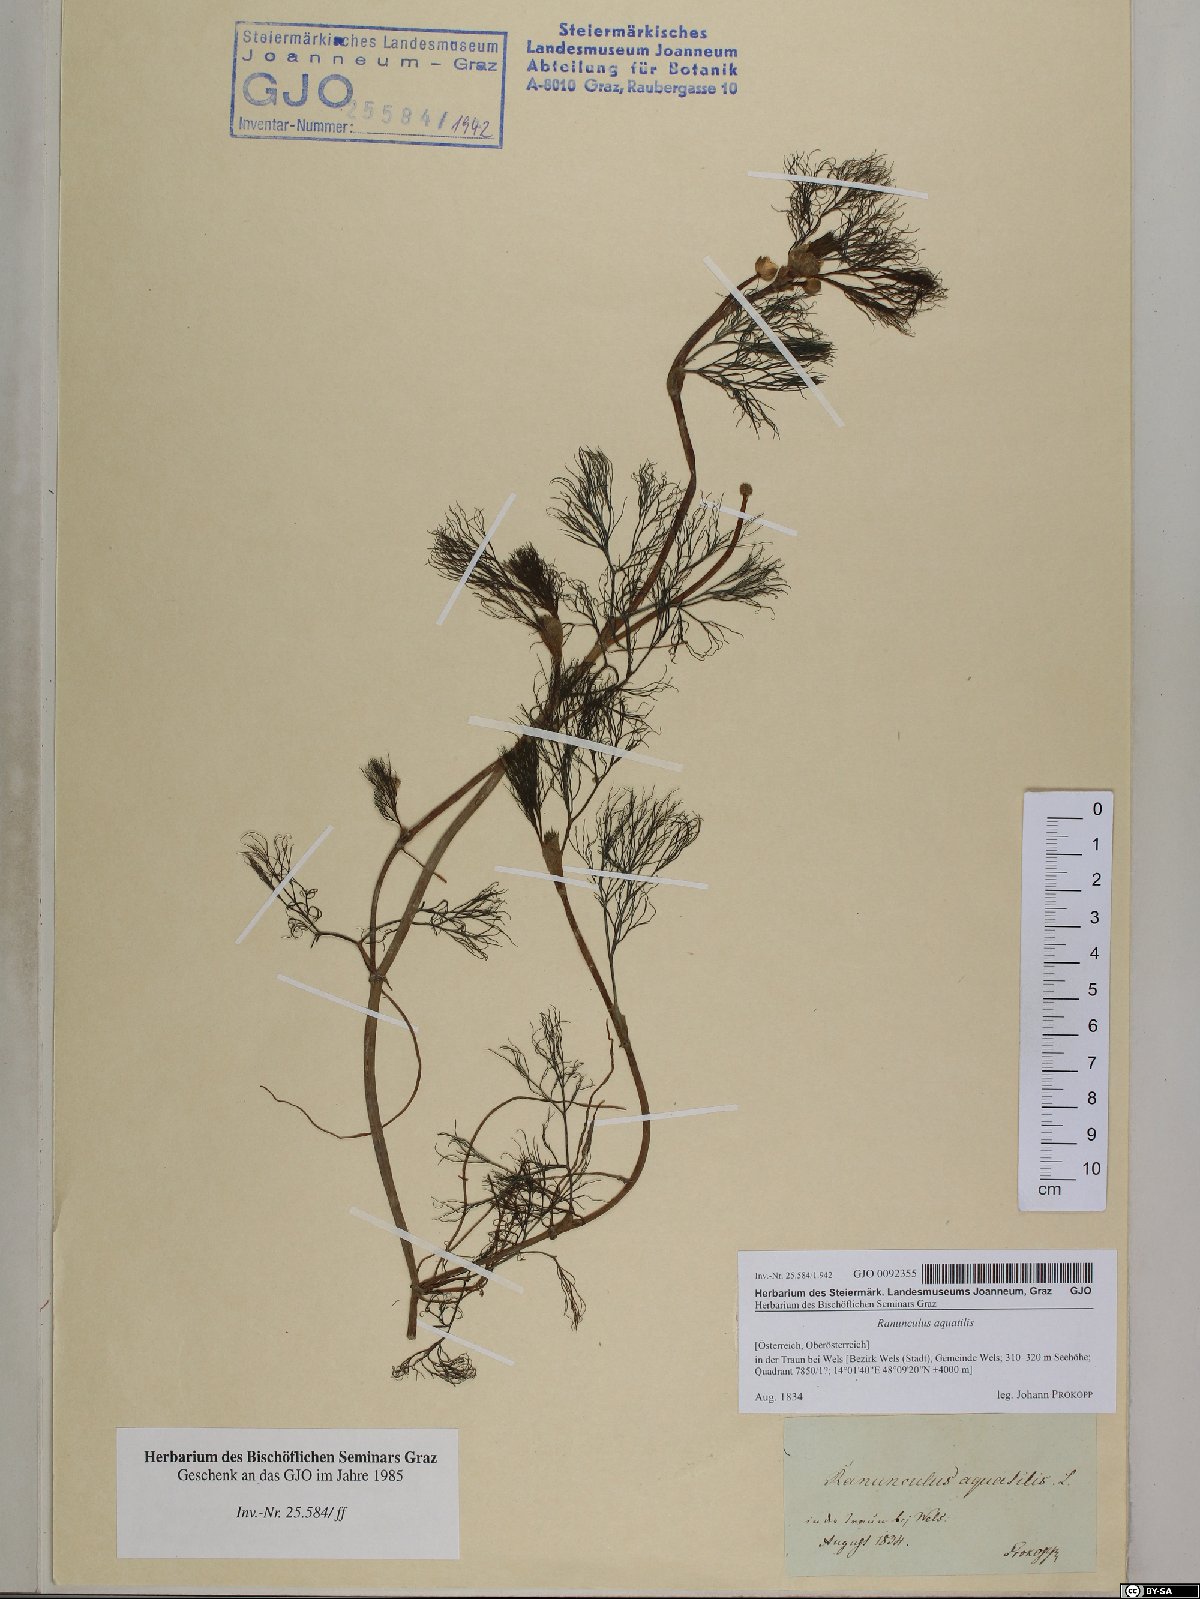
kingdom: Plantae
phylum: Tracheophyta
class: Magnoliopsida
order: Ranunculales
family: Ranunculaceae
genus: Ranunculus
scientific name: Ranunculus aquatilis
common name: Common water-crowfoot
